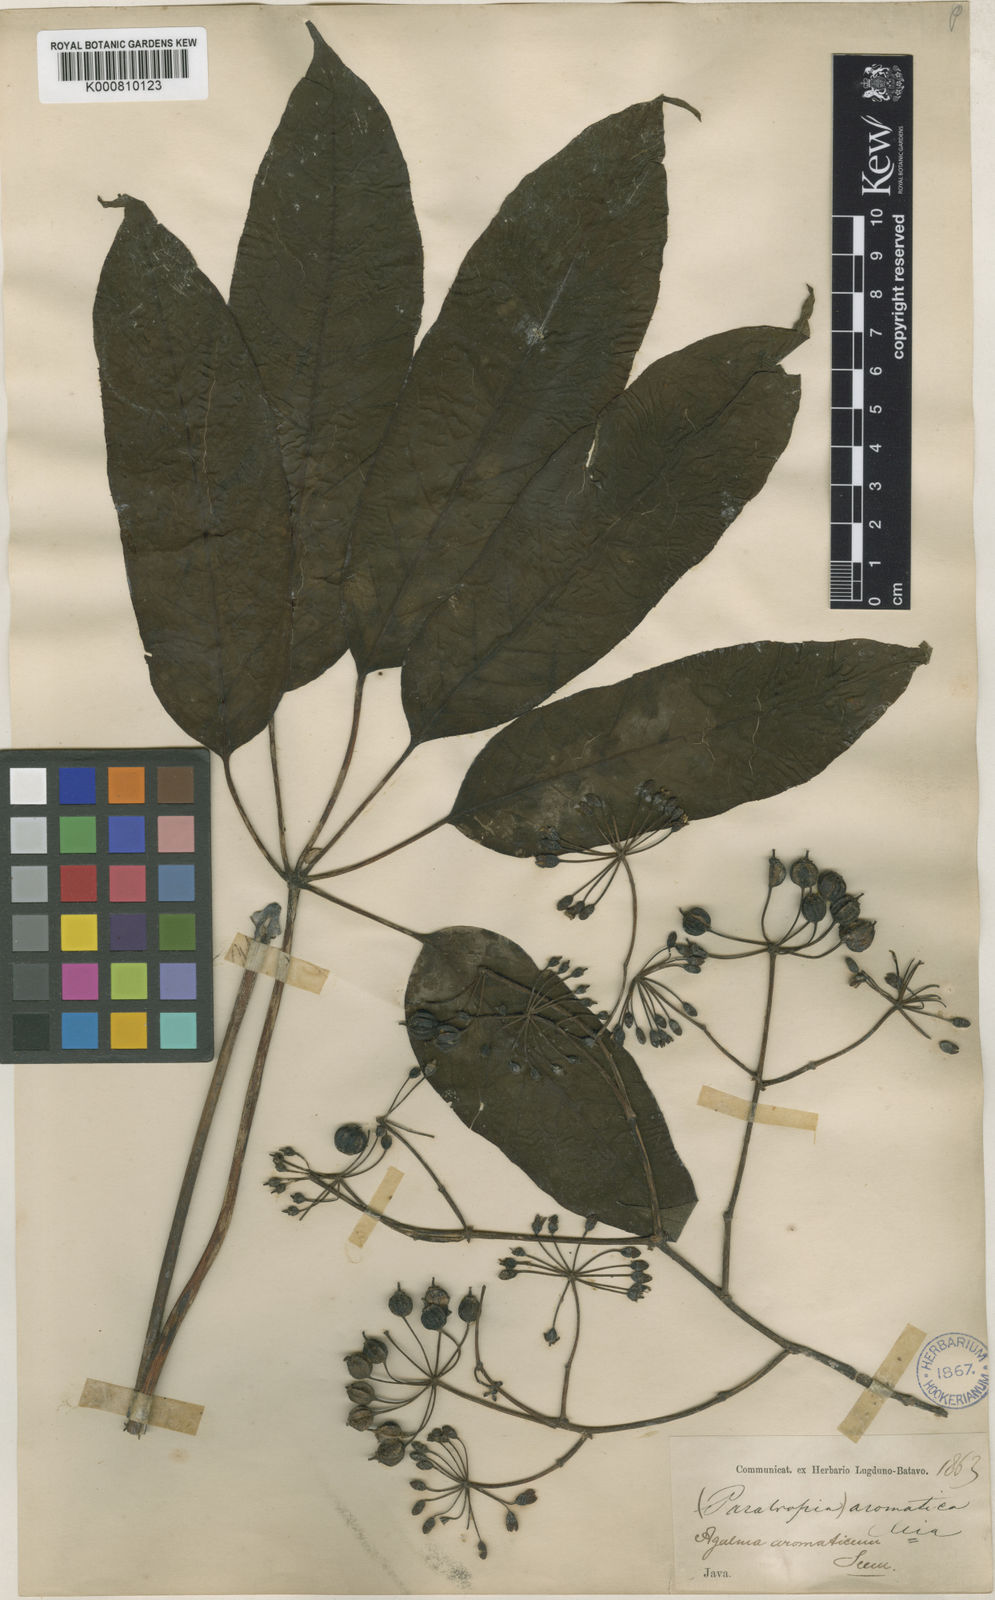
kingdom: Plantae
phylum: Tracheophyta
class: Magnoliopsida
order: Apiales
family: Araliaceae
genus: Heptapleurum
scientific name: Heptapleurum aromaticum
